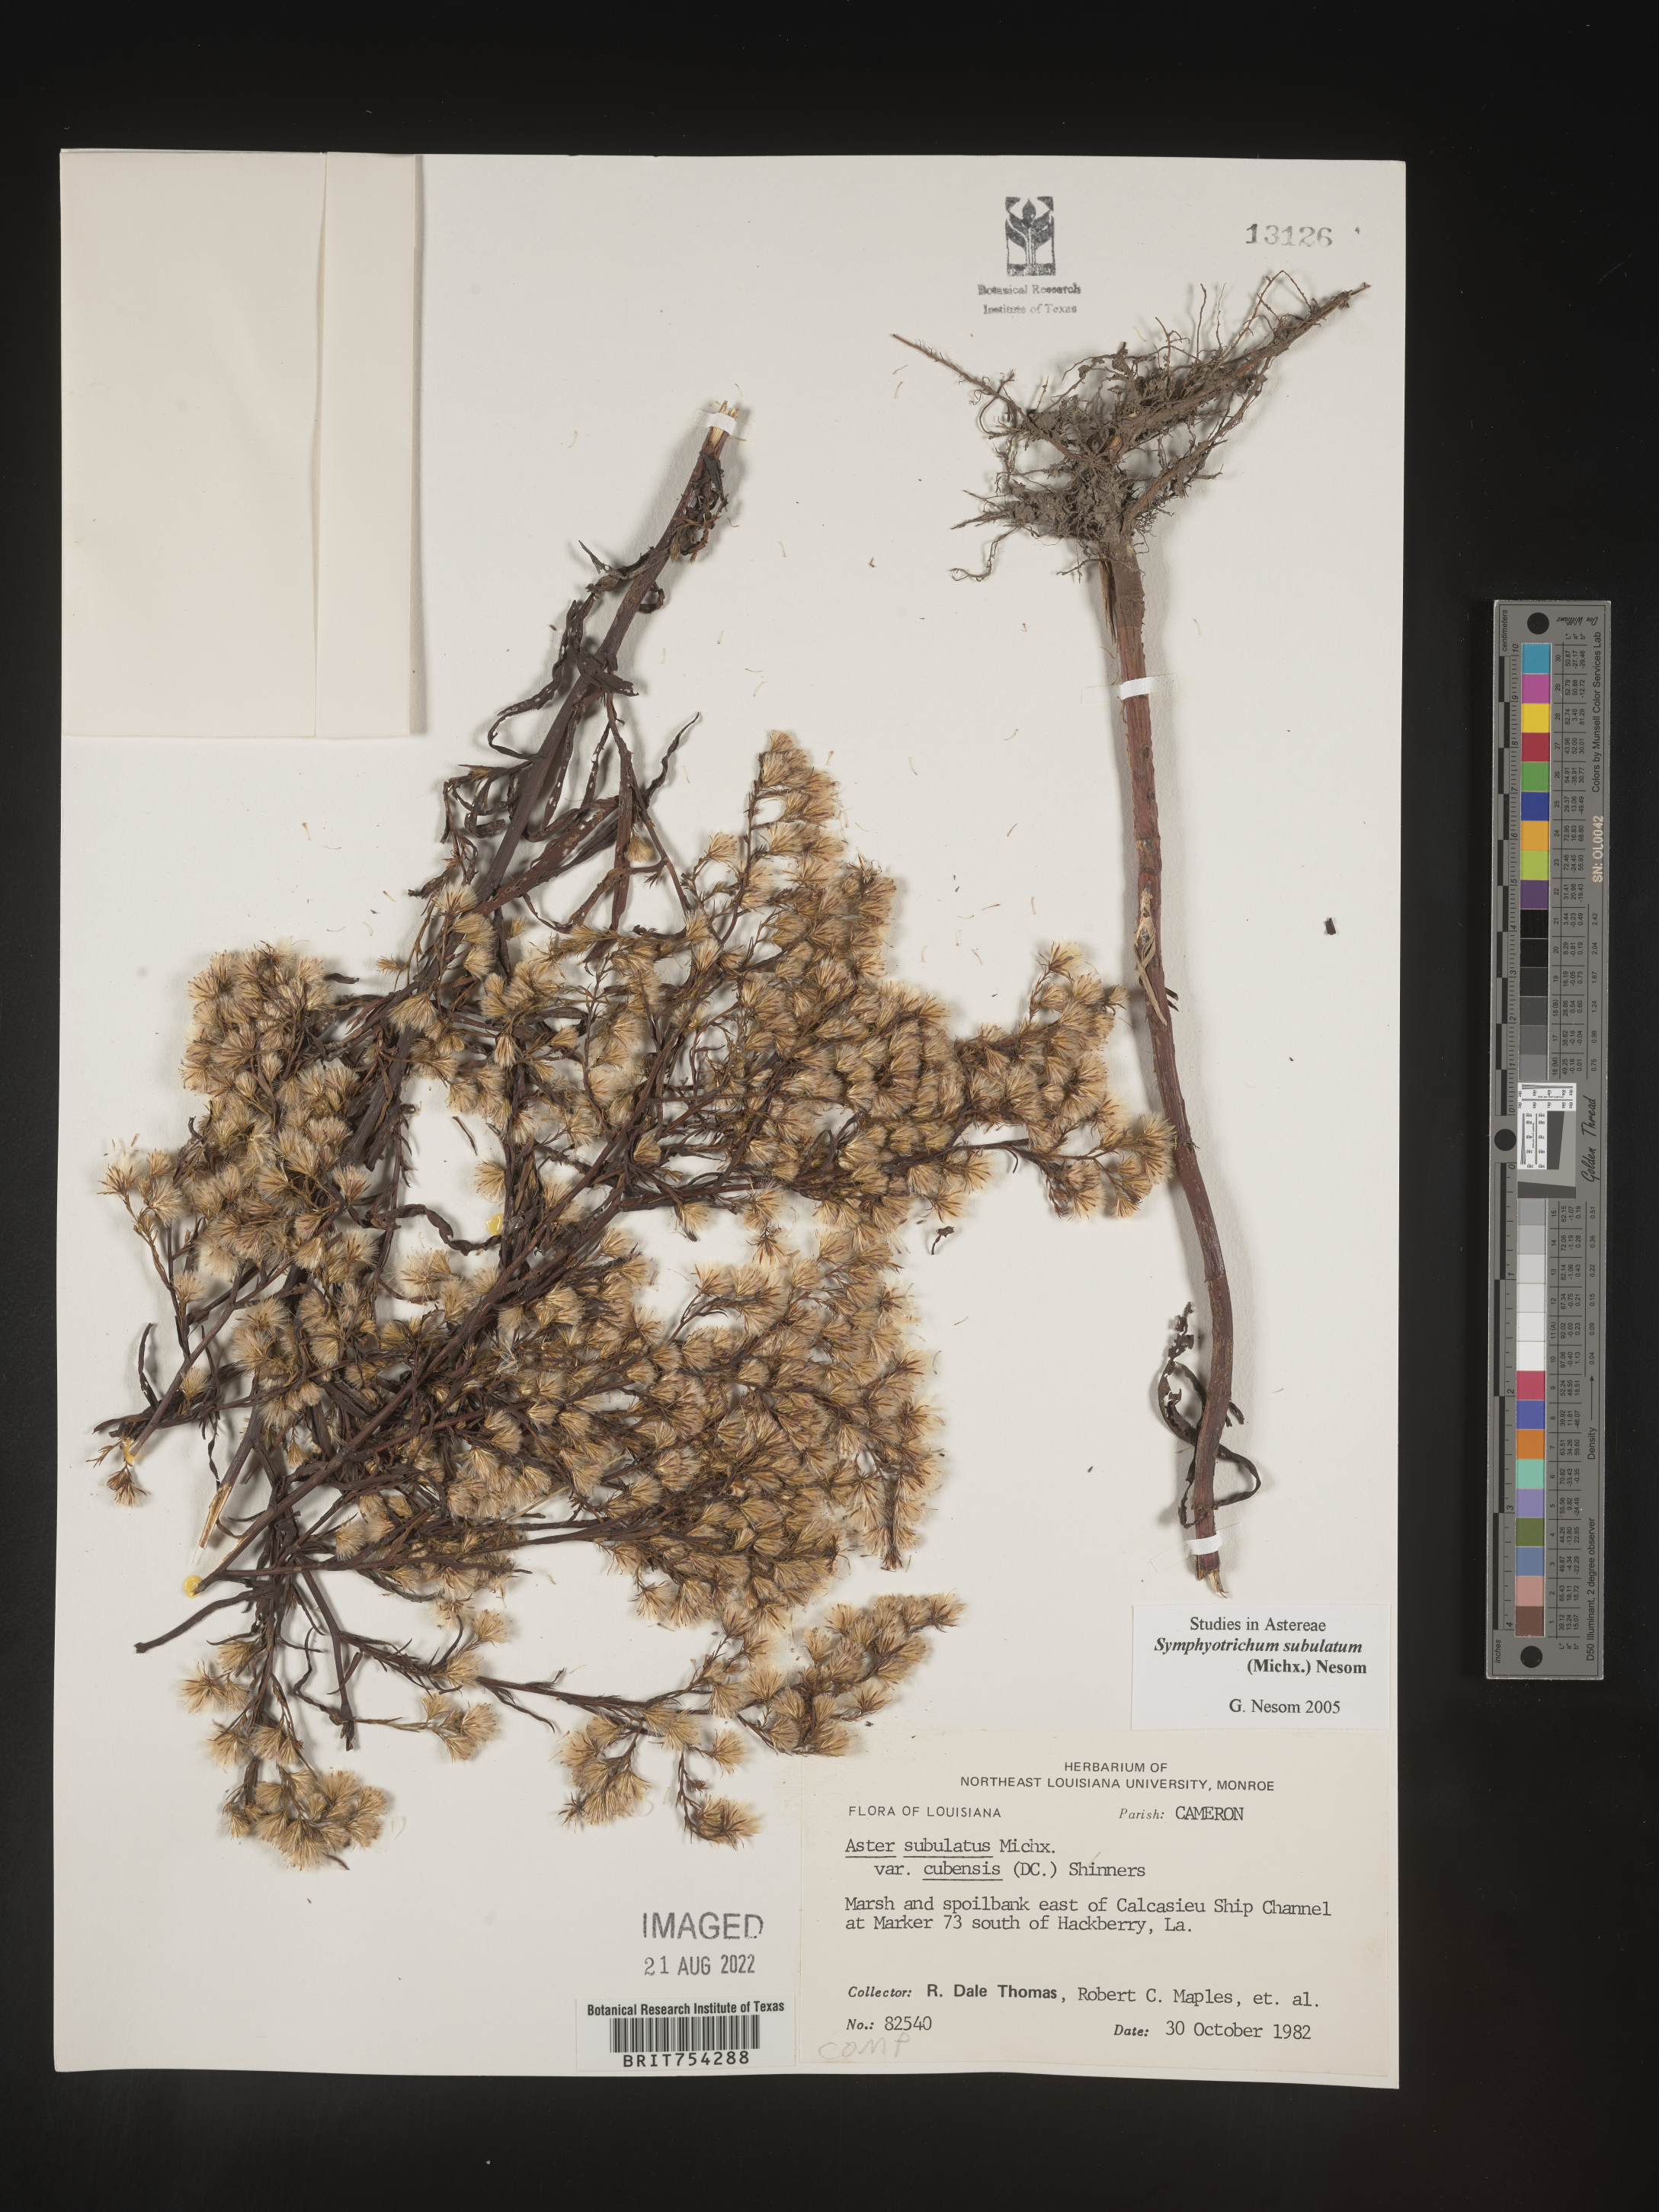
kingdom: Plantae
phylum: Tracheophyta
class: Magnoliopsida
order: Asterales
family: Asteraceae
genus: Symphyotrichum
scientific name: Symphyotrichum subulatum
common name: Annual saltmarsh aster
